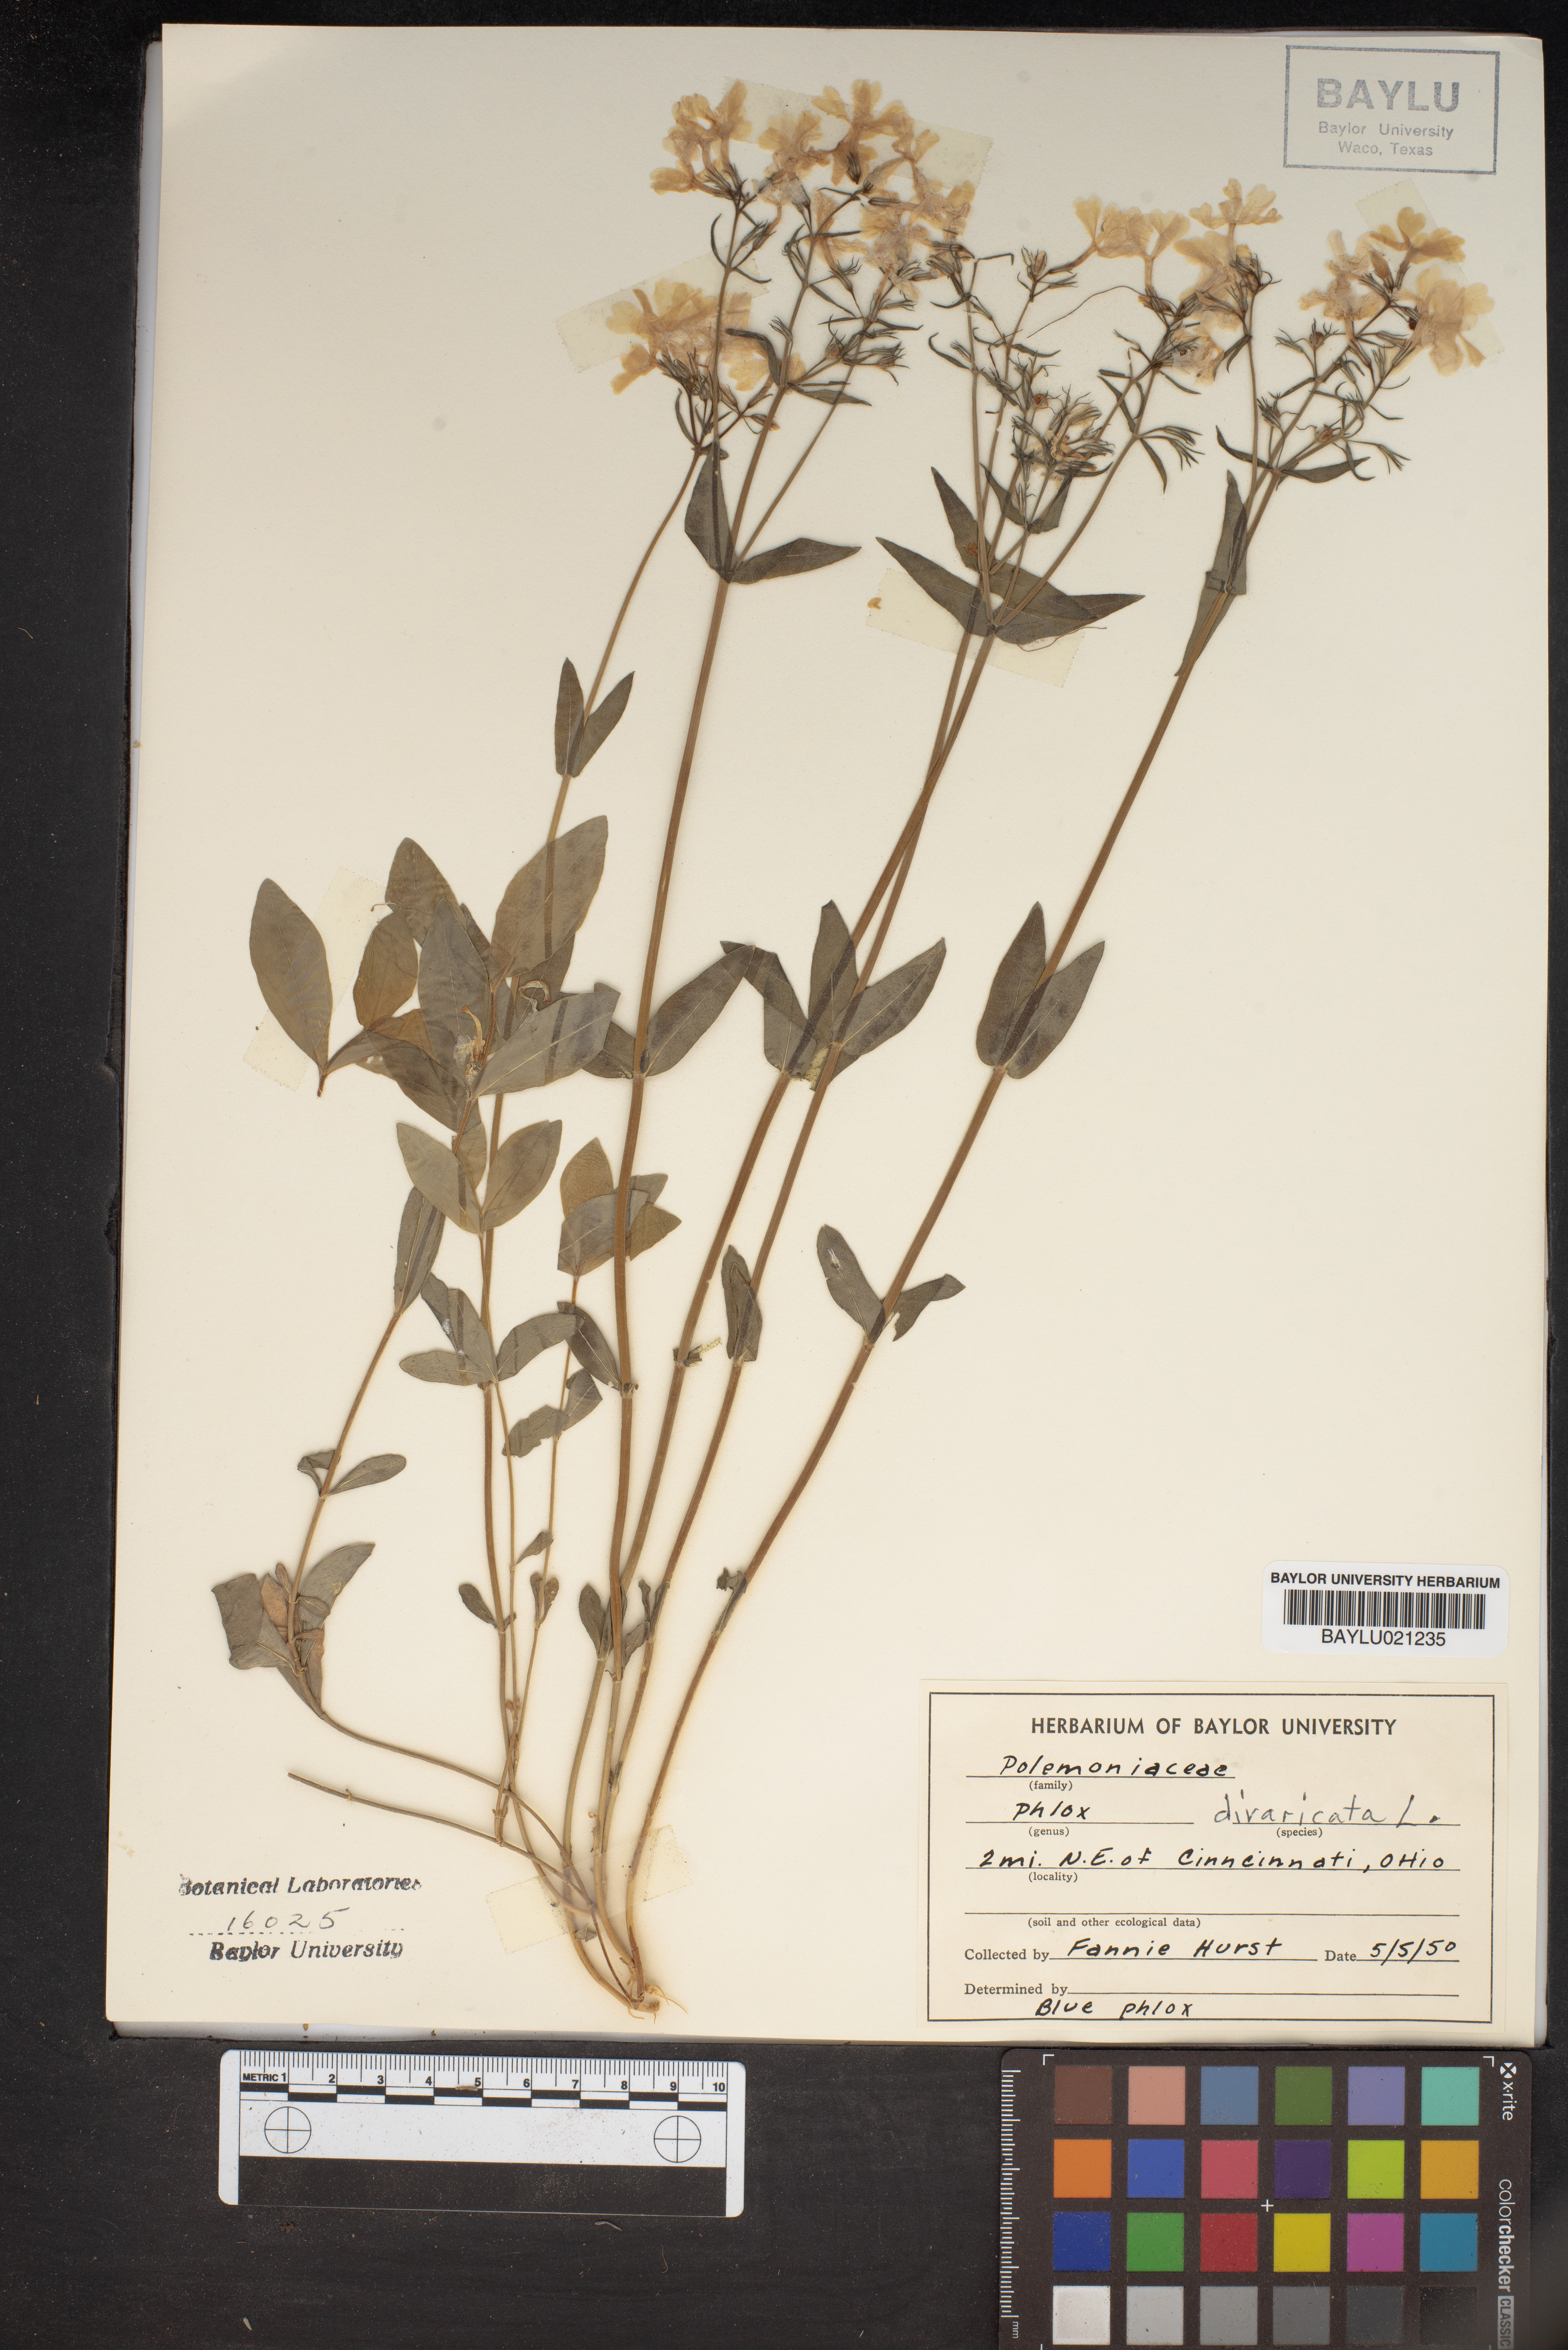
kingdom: Plantae
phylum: Tracheophyta
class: Magnoliopsida
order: Ericales
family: Polemoniaceae
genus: Phlox
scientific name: Phlox divaricata
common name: Blue phlox
